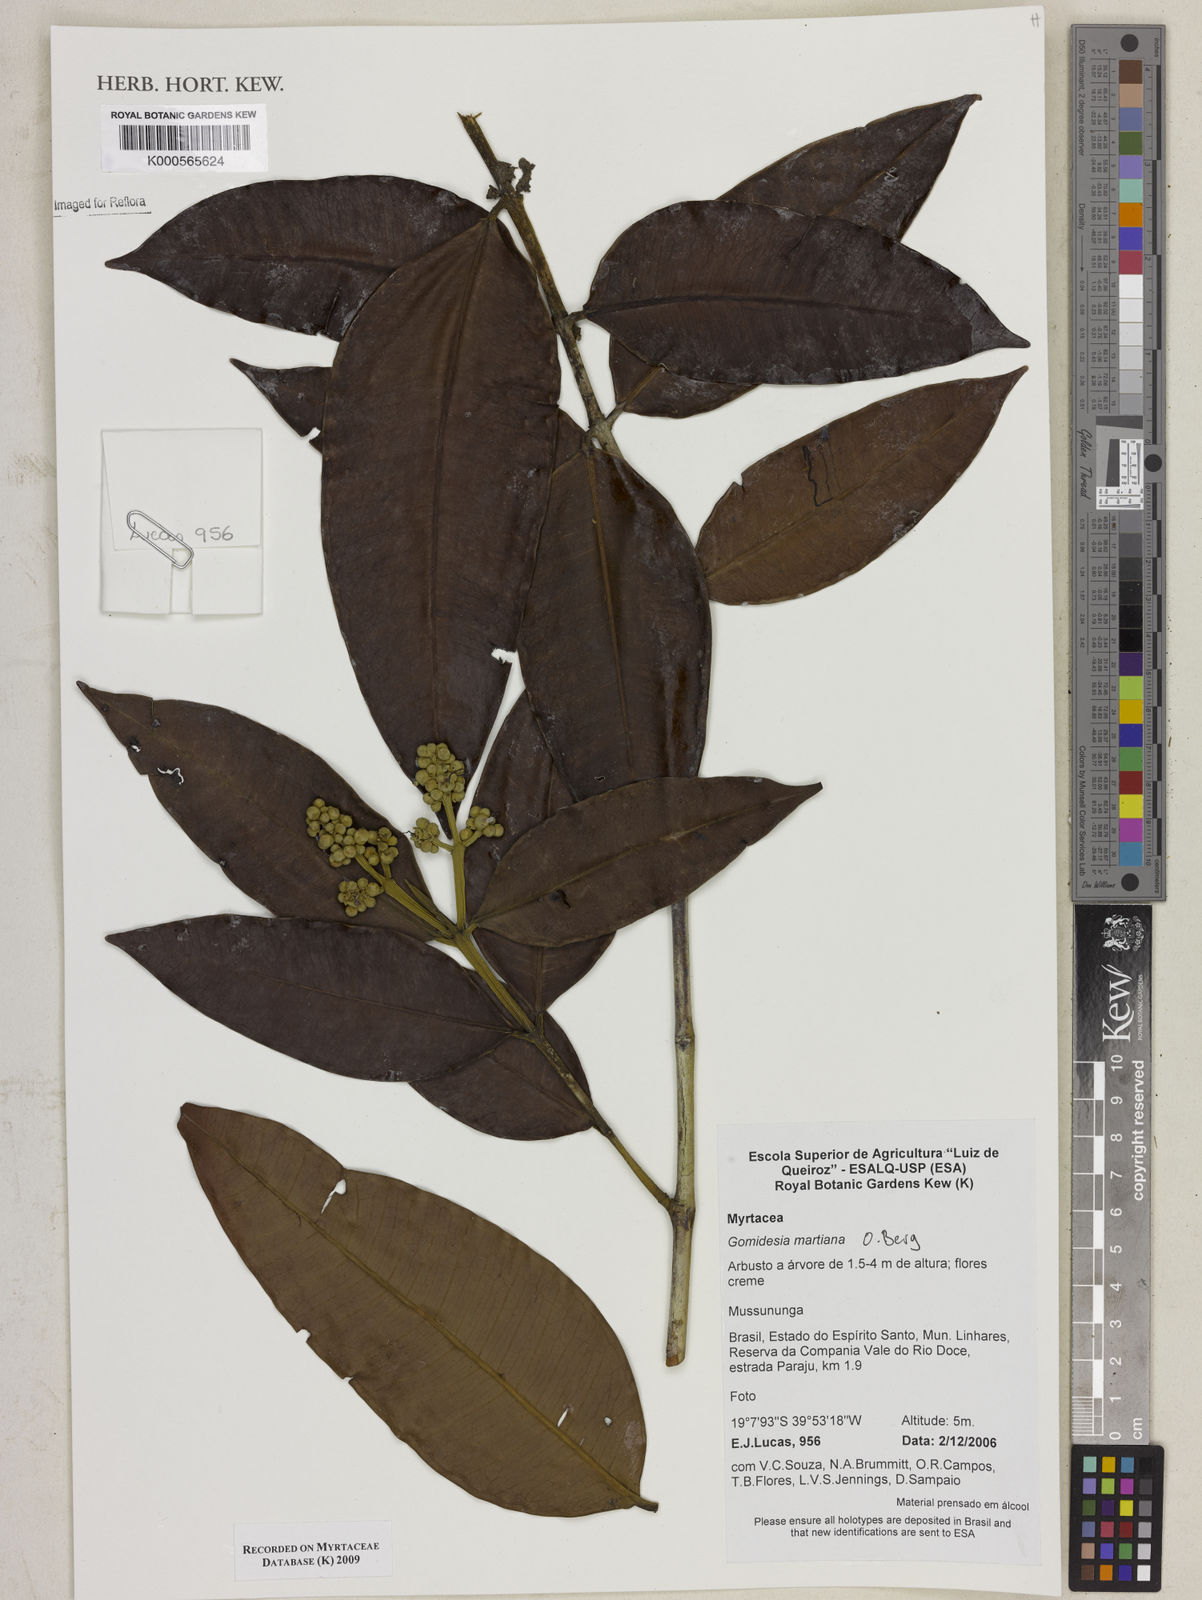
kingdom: Plantae
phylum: Tracheophyta
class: Magnoliopsida
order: Myrtales
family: Myrtaceae
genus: Myrcia
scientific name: Myrcia vittoriana
